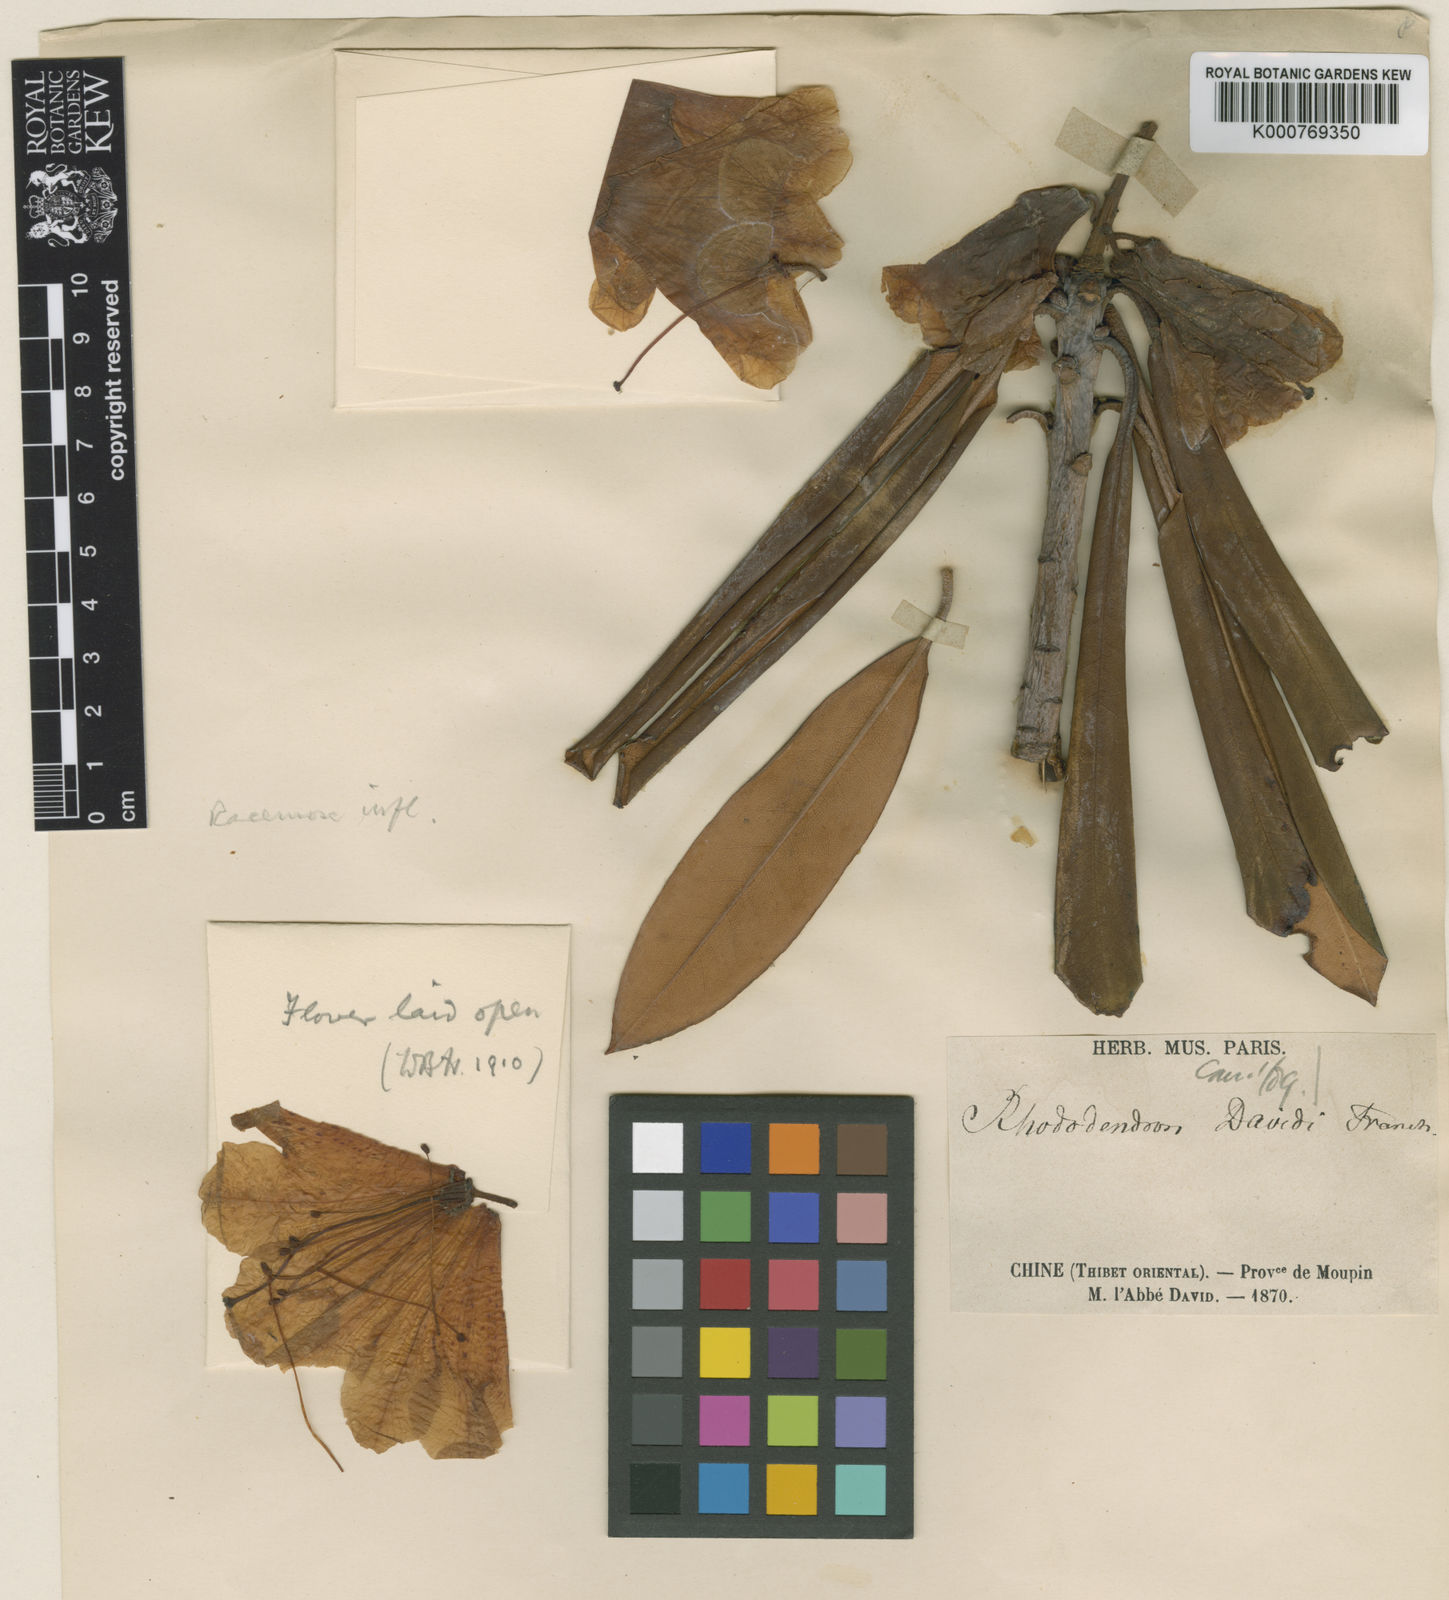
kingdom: Plantae
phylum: Tracheophyta
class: Magnoliopsida
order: Ericales
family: Ericaceae
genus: Rhododendron
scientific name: Rhododendron davidi
